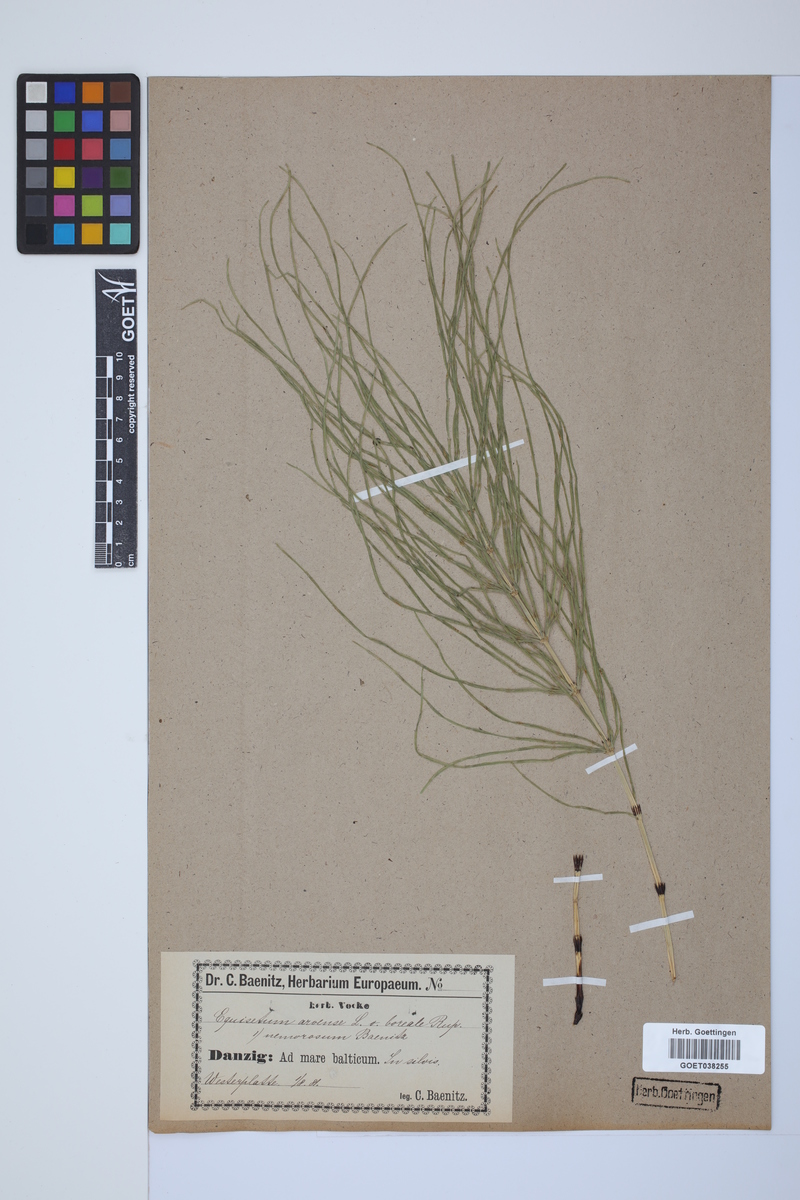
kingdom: Plantae
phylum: Tracheophyta
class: Polypodiopsida
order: Equisetales
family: Equisetaceae
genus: Equisetum
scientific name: Equisetum arvense
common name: Field horsetail
